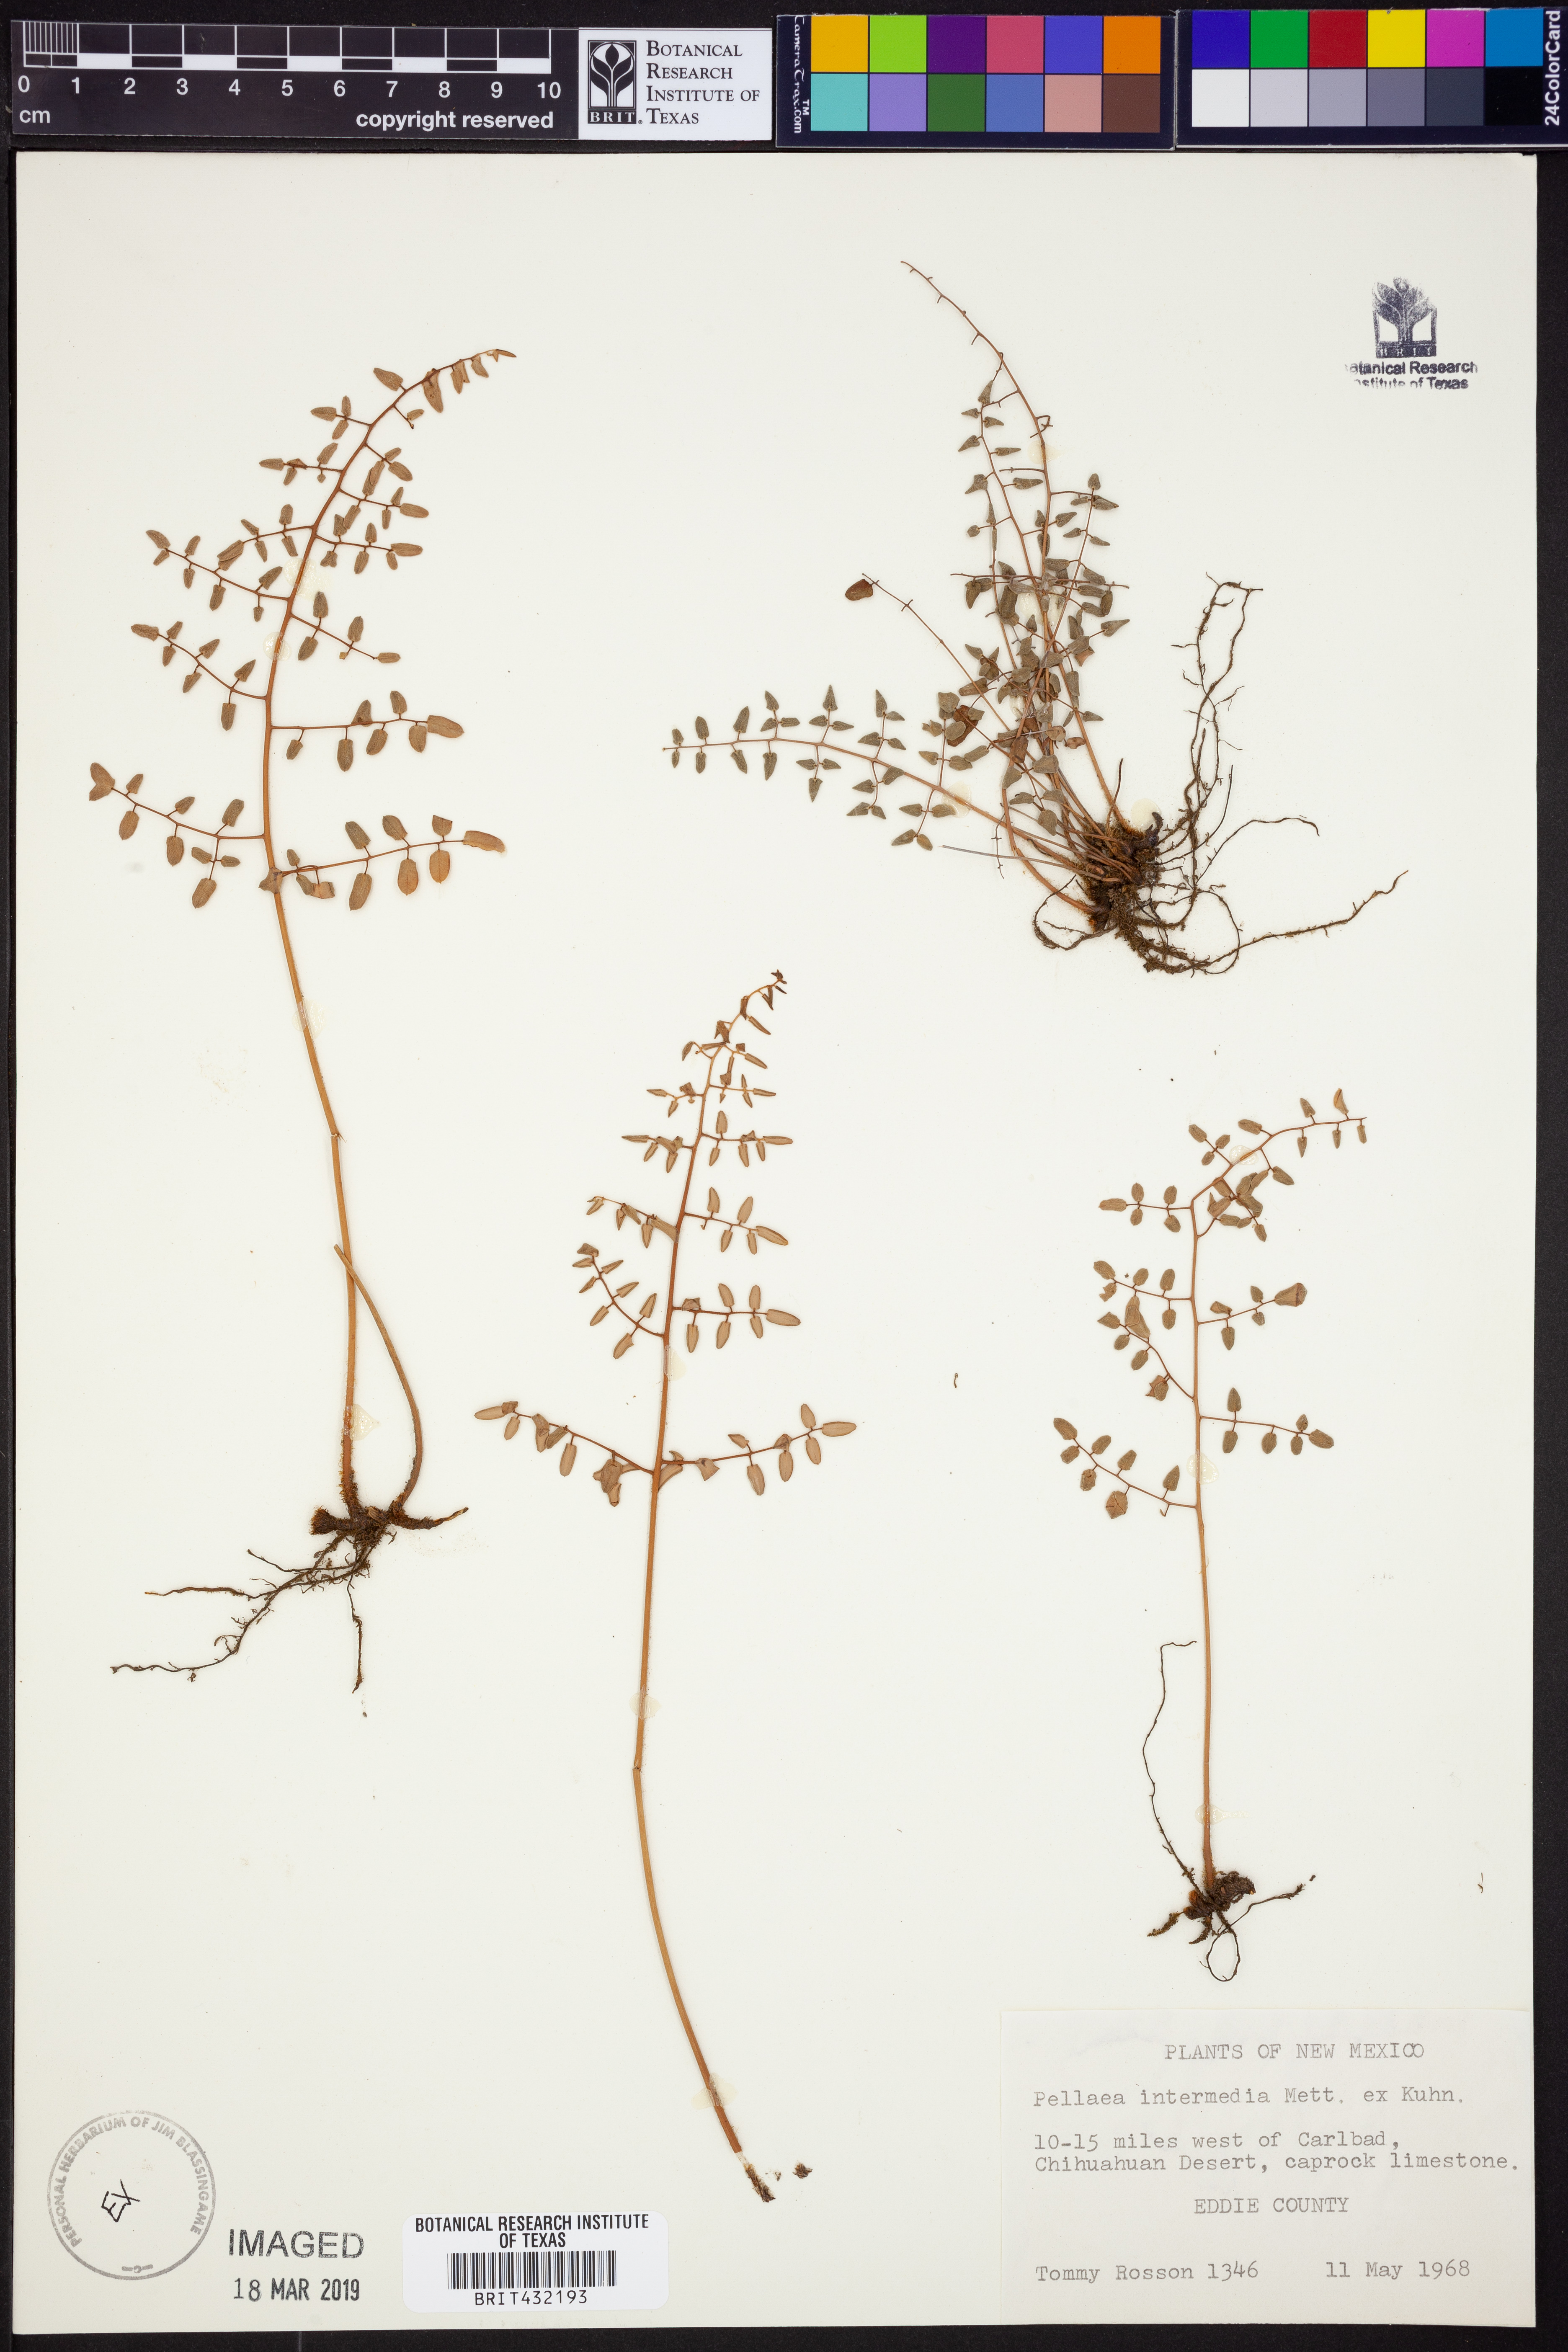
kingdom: Plantae
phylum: Tracheophyta
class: Polypodiopsida
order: Polypodiales
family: Pteridaceae
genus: Pellaea
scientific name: Pellaea intermedia
